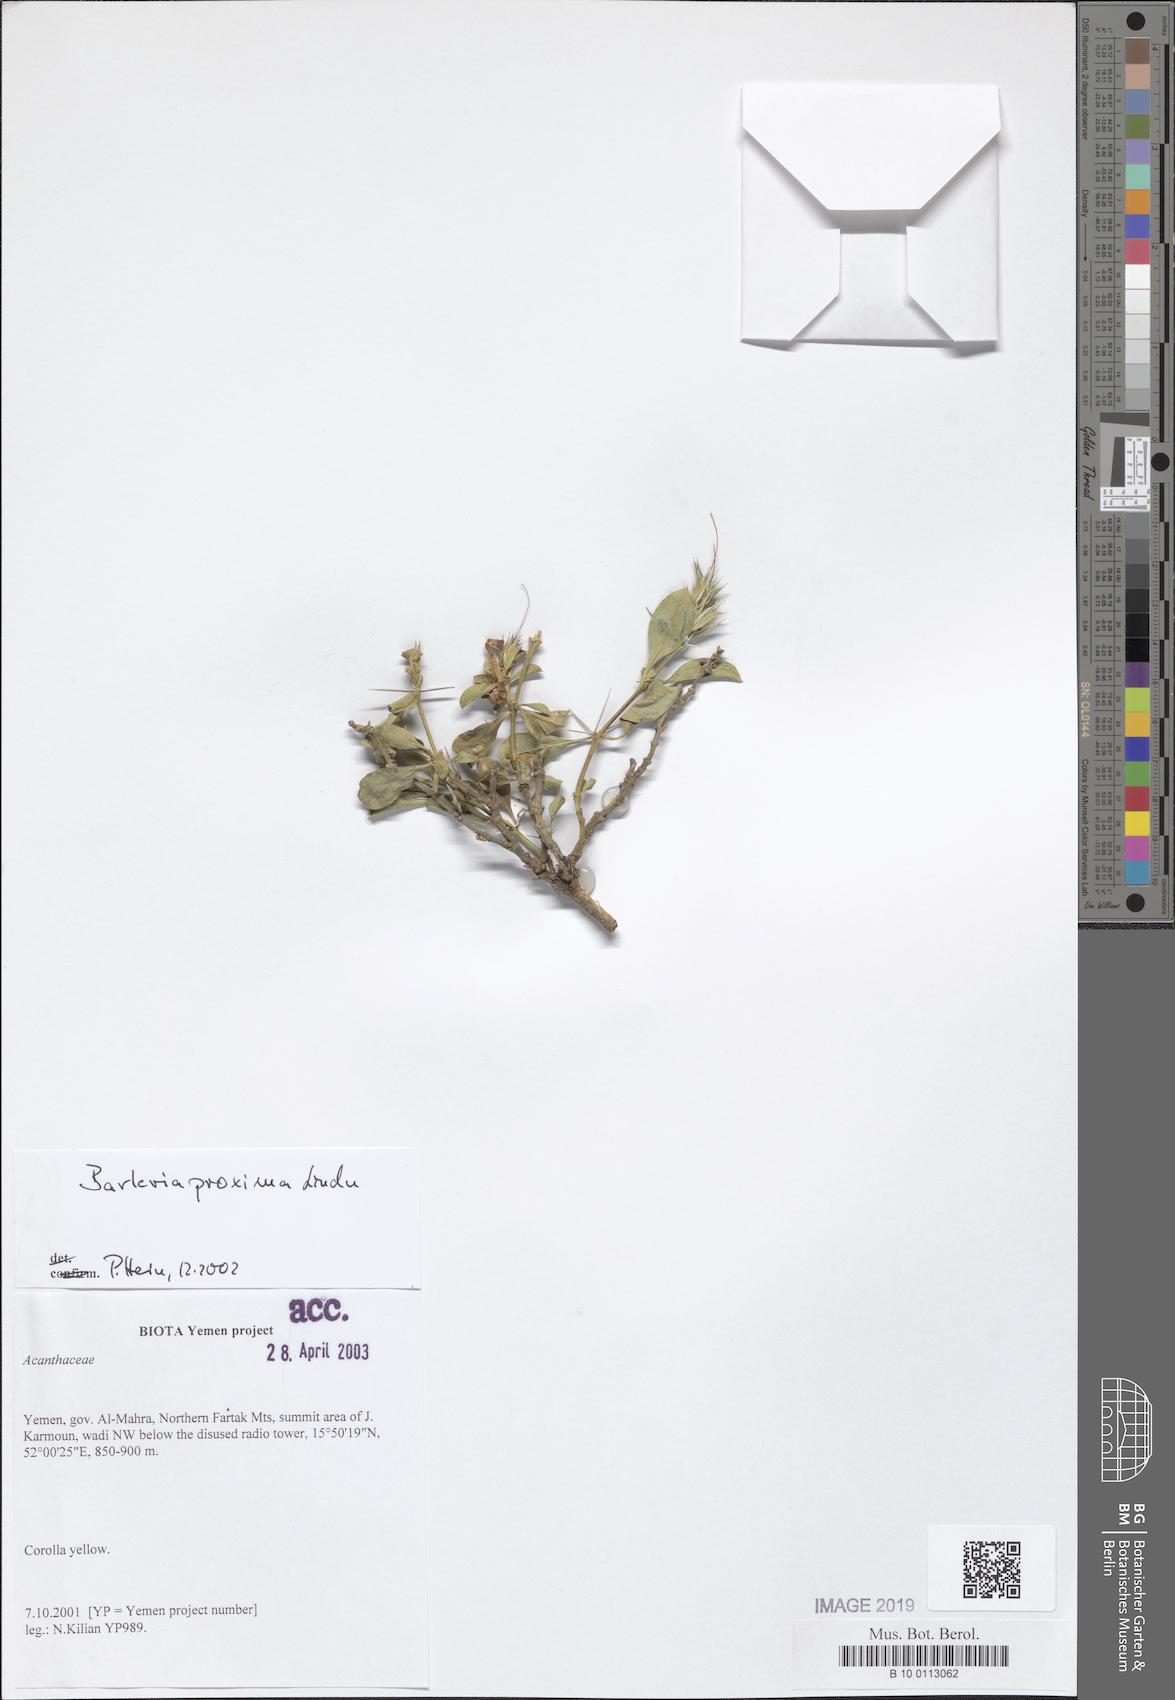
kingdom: Plantae
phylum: Tracheophyta
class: Magnoliopsida
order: Lamiales
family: Acanthaceae
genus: Barleria
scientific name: Barleria proxima
